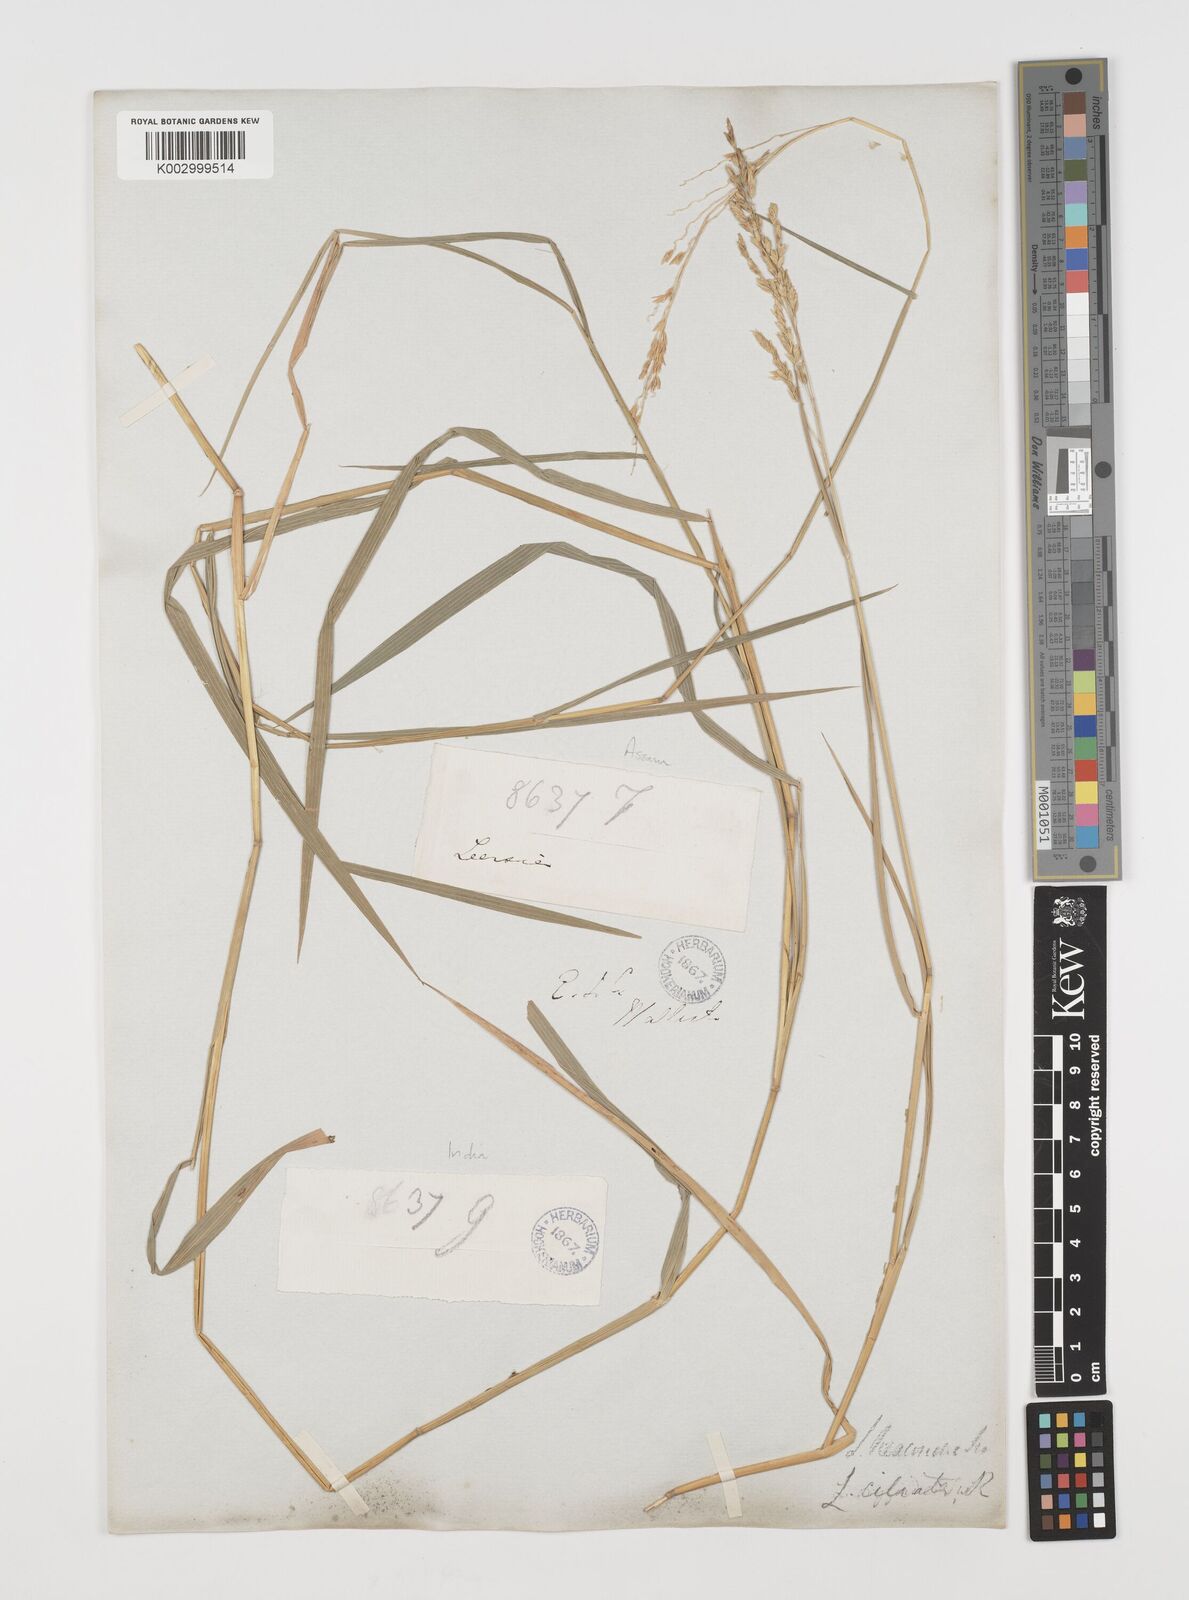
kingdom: Plantae
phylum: Tracheophyta
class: Liliopsida
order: Poales
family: Poaceae
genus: Leersia
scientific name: Leersia hexandra
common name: Southern cut grass
